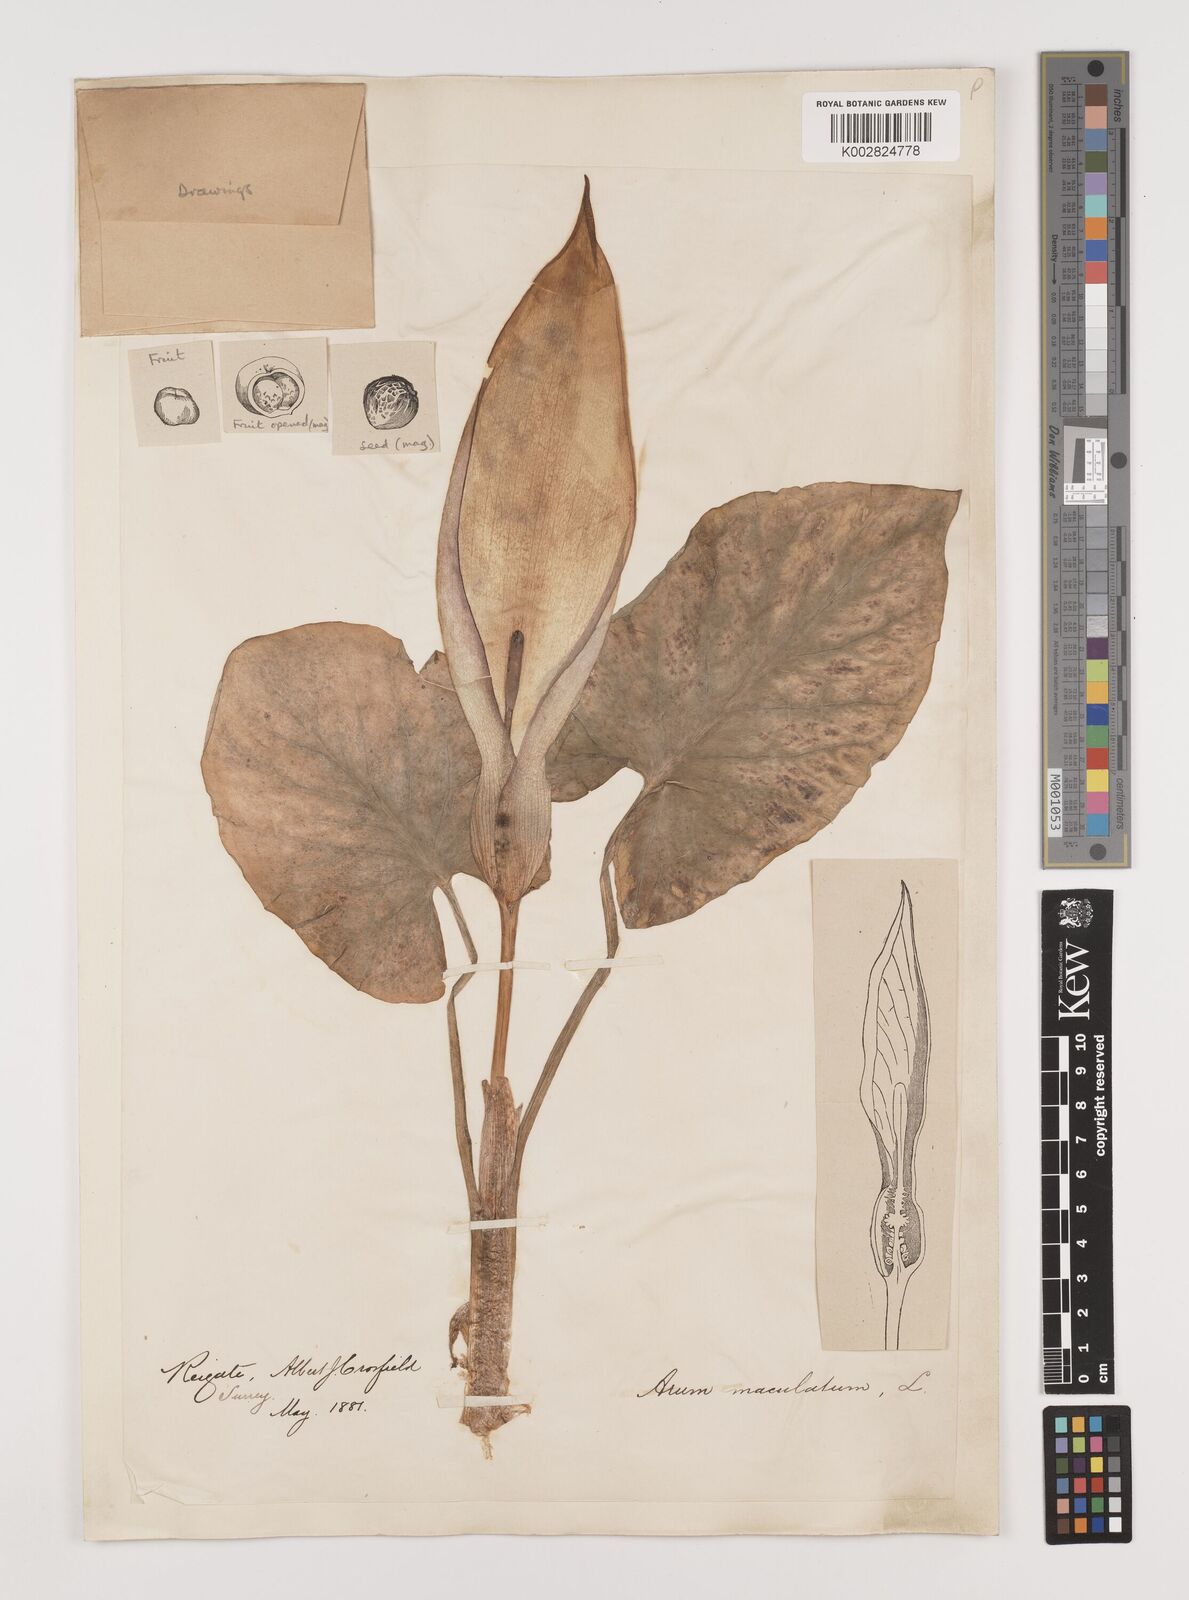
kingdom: Plantae
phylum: Tracheophyta
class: Liliopsida
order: Alismatales
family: Araceae
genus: Arum
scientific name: Arum maculatum
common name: Lords-and-ladies
